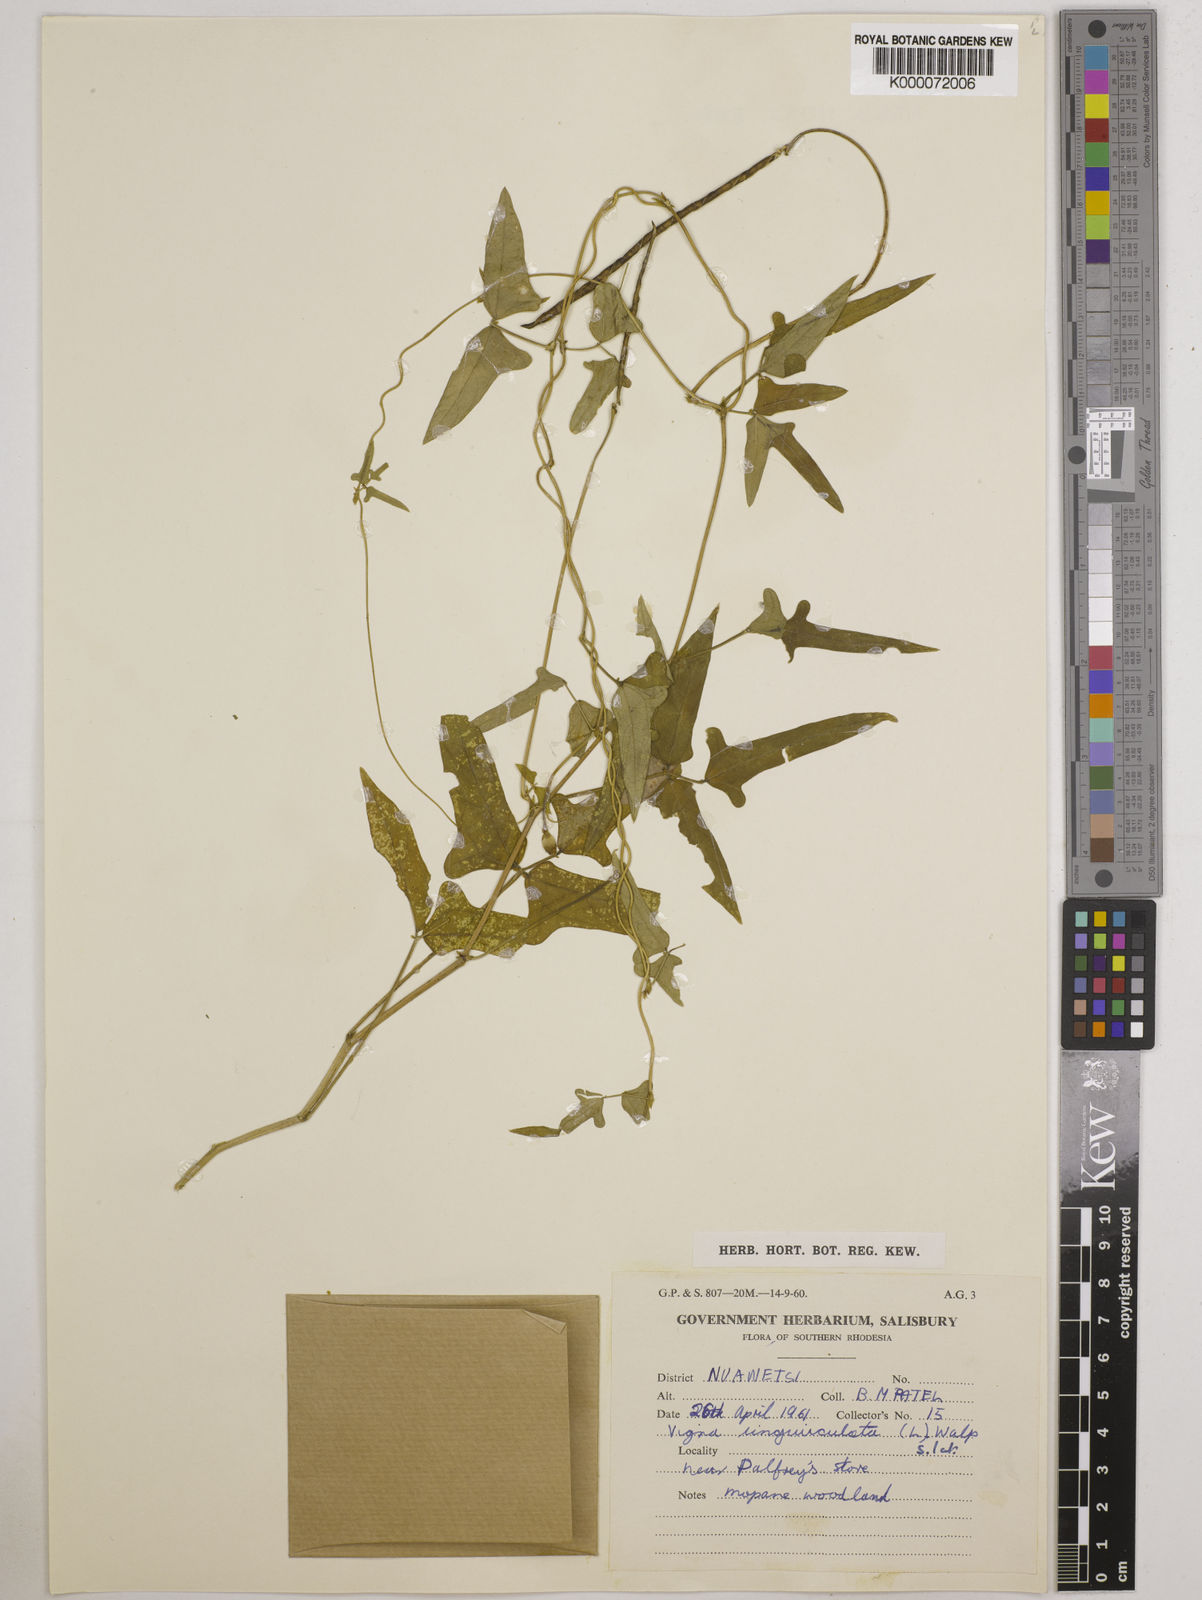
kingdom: Plantae
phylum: Tracheophyta
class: Magnoliopsida
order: Fabales
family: Fabaceae
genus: Vigna
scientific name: Vigna unguiculata
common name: Cowpea
